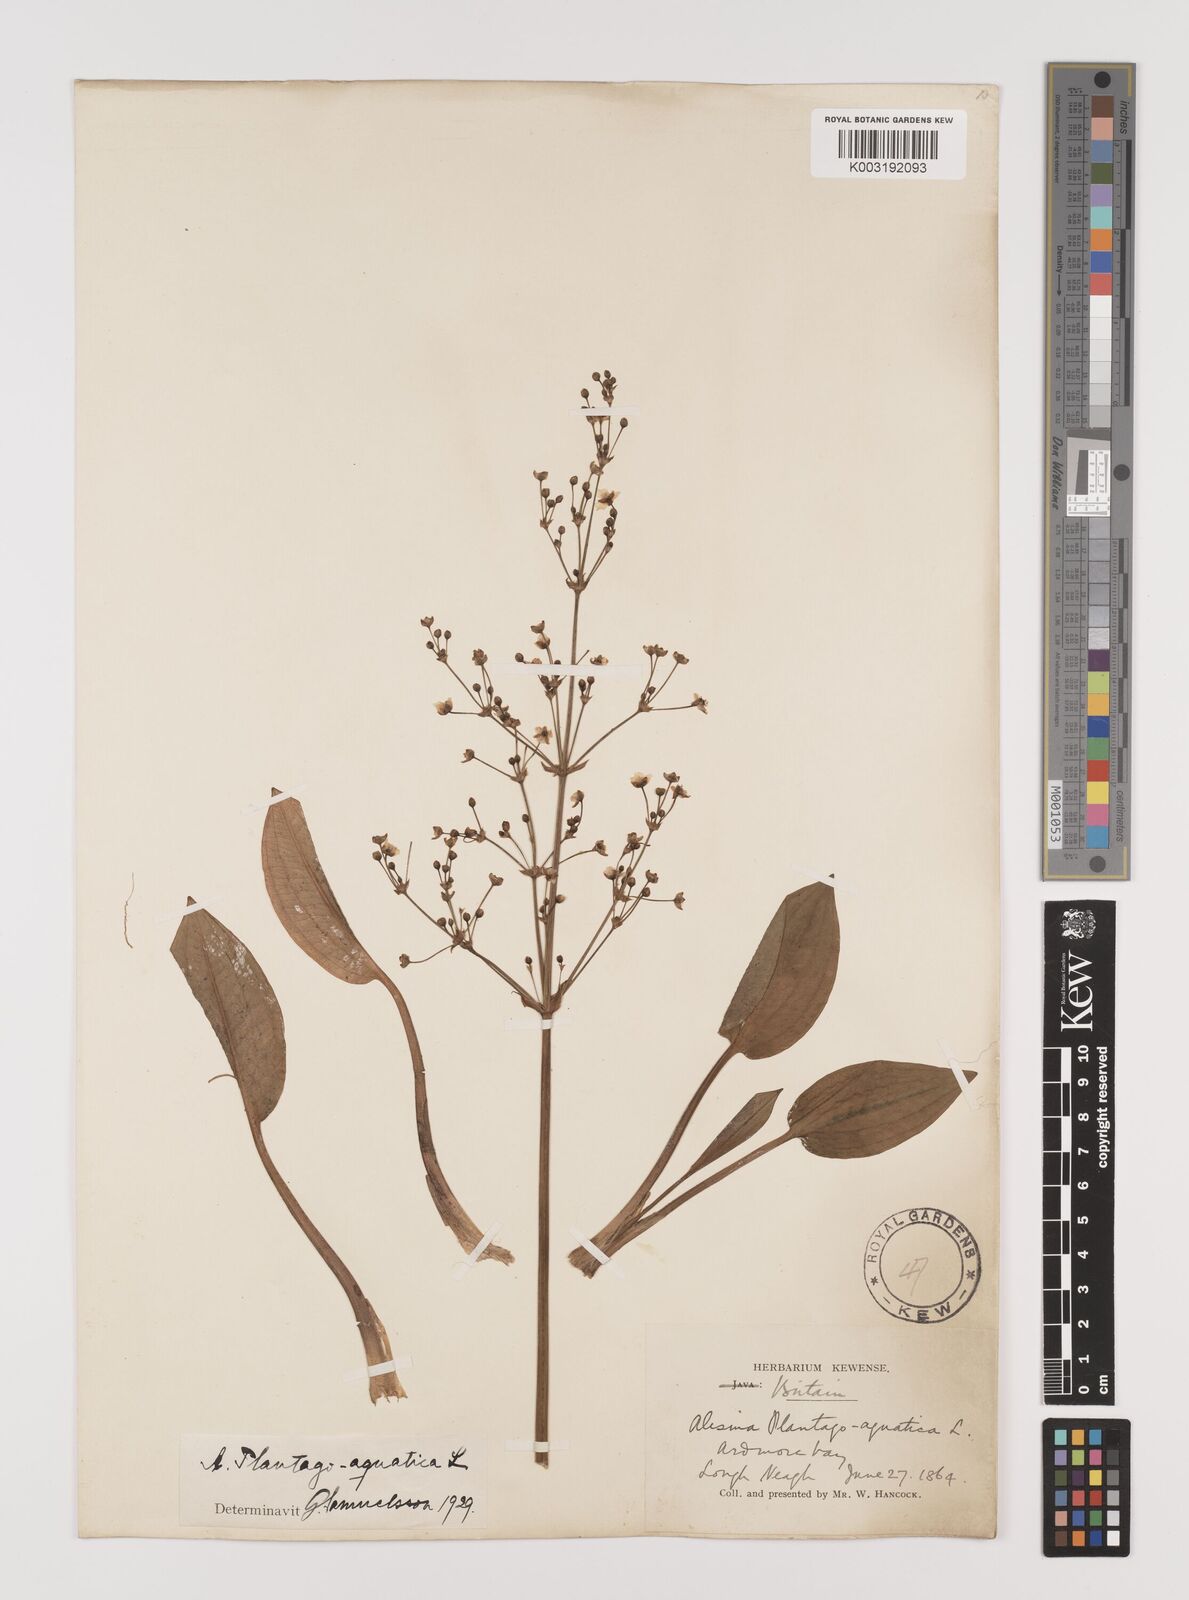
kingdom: Plantae
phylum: Tracheophyta
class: Liliopsida
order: Alismatales
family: Alismataceae
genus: Alisma
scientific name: Alisma plantago-aquatica
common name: Water-plantain
